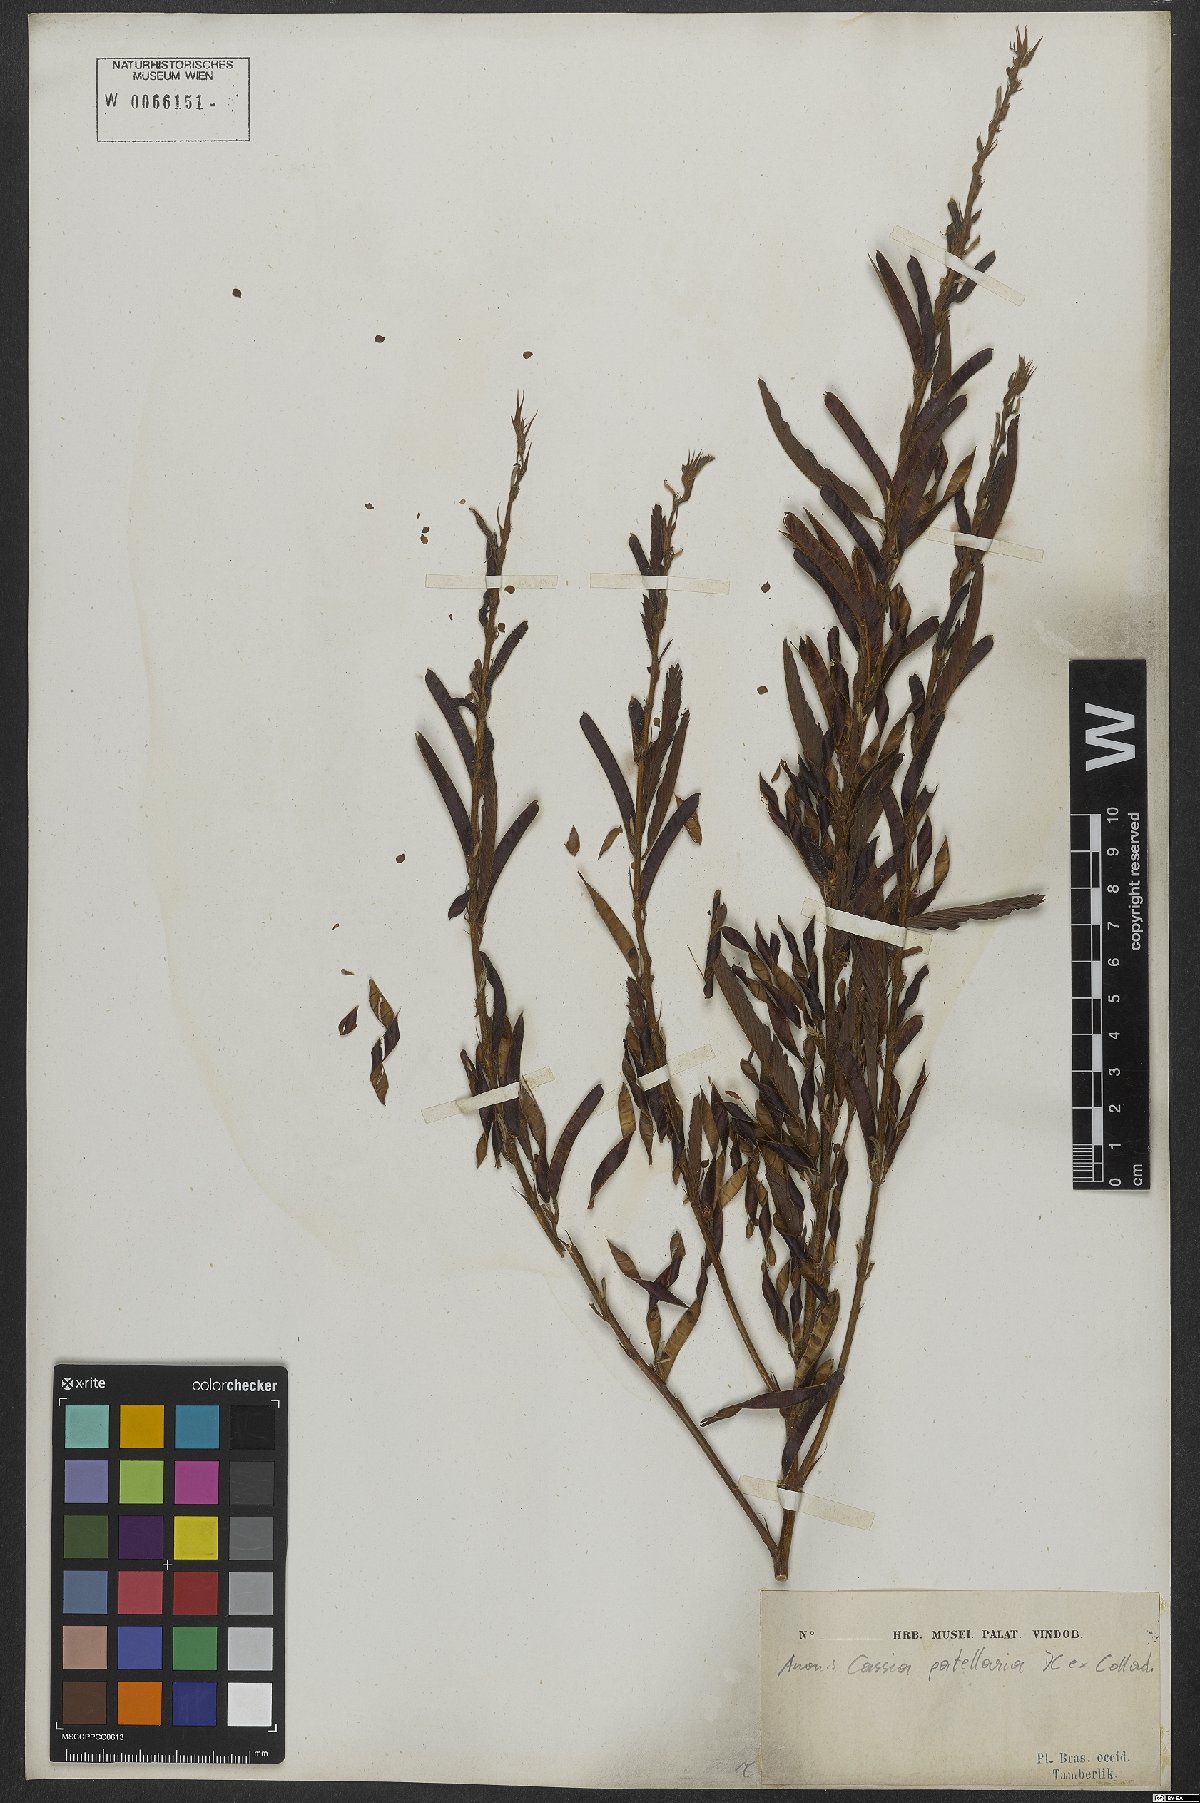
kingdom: Plantae
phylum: Tracheophyta
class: Magnoliopsida
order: Fabales
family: Fabaceae
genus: Chamaecrista
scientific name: Chamaecrista nictitans
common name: Sensitive cassia
